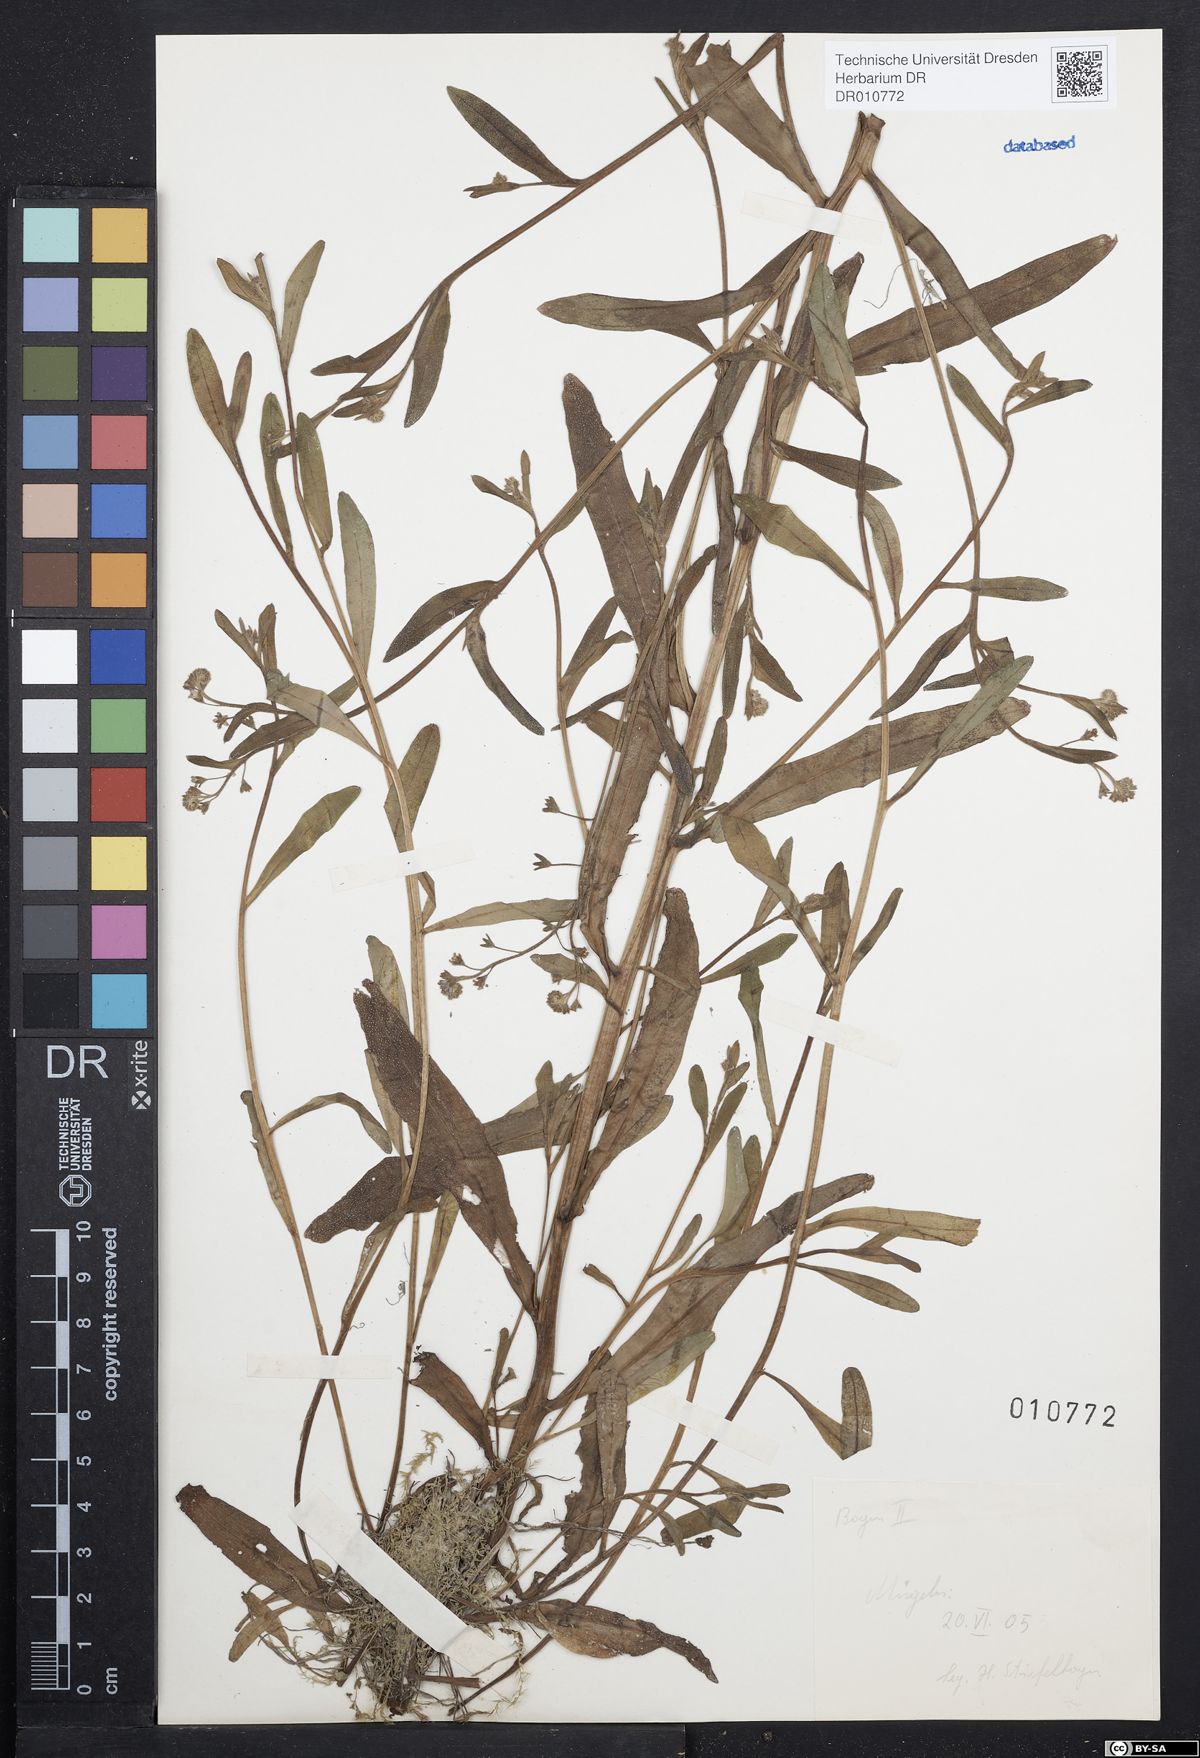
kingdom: Plantae
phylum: Tracheophyta
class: Magnoliopsida
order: Boraginales
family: Boraginaceae
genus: Myosotis
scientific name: Myosotis laxa
